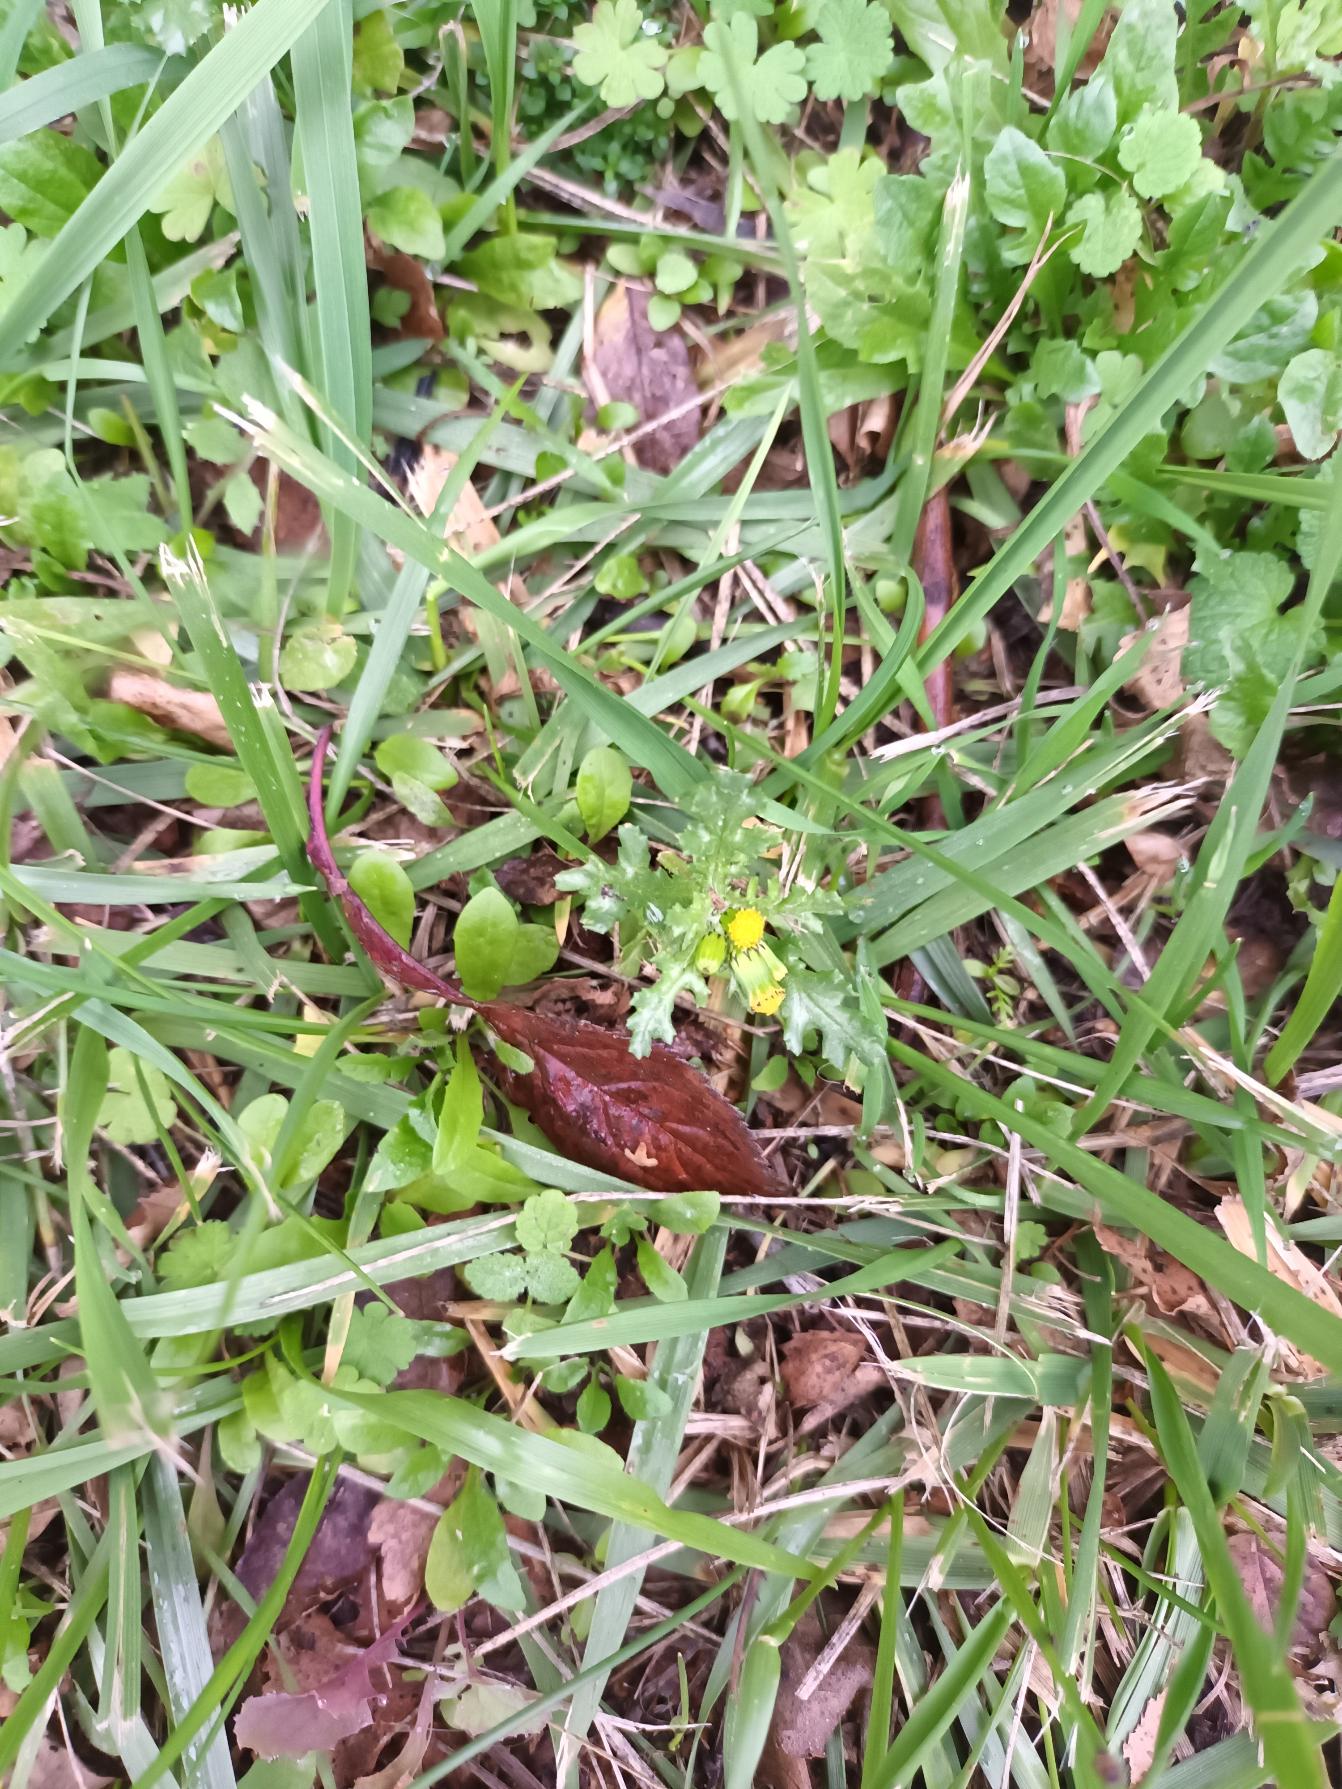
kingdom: Plantae
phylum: Tracheophyta
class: Magnoliopsida
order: Asterales
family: Asteraceae
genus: Senecio
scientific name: Senecio vulgaris
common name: Almindelig brandbæger
